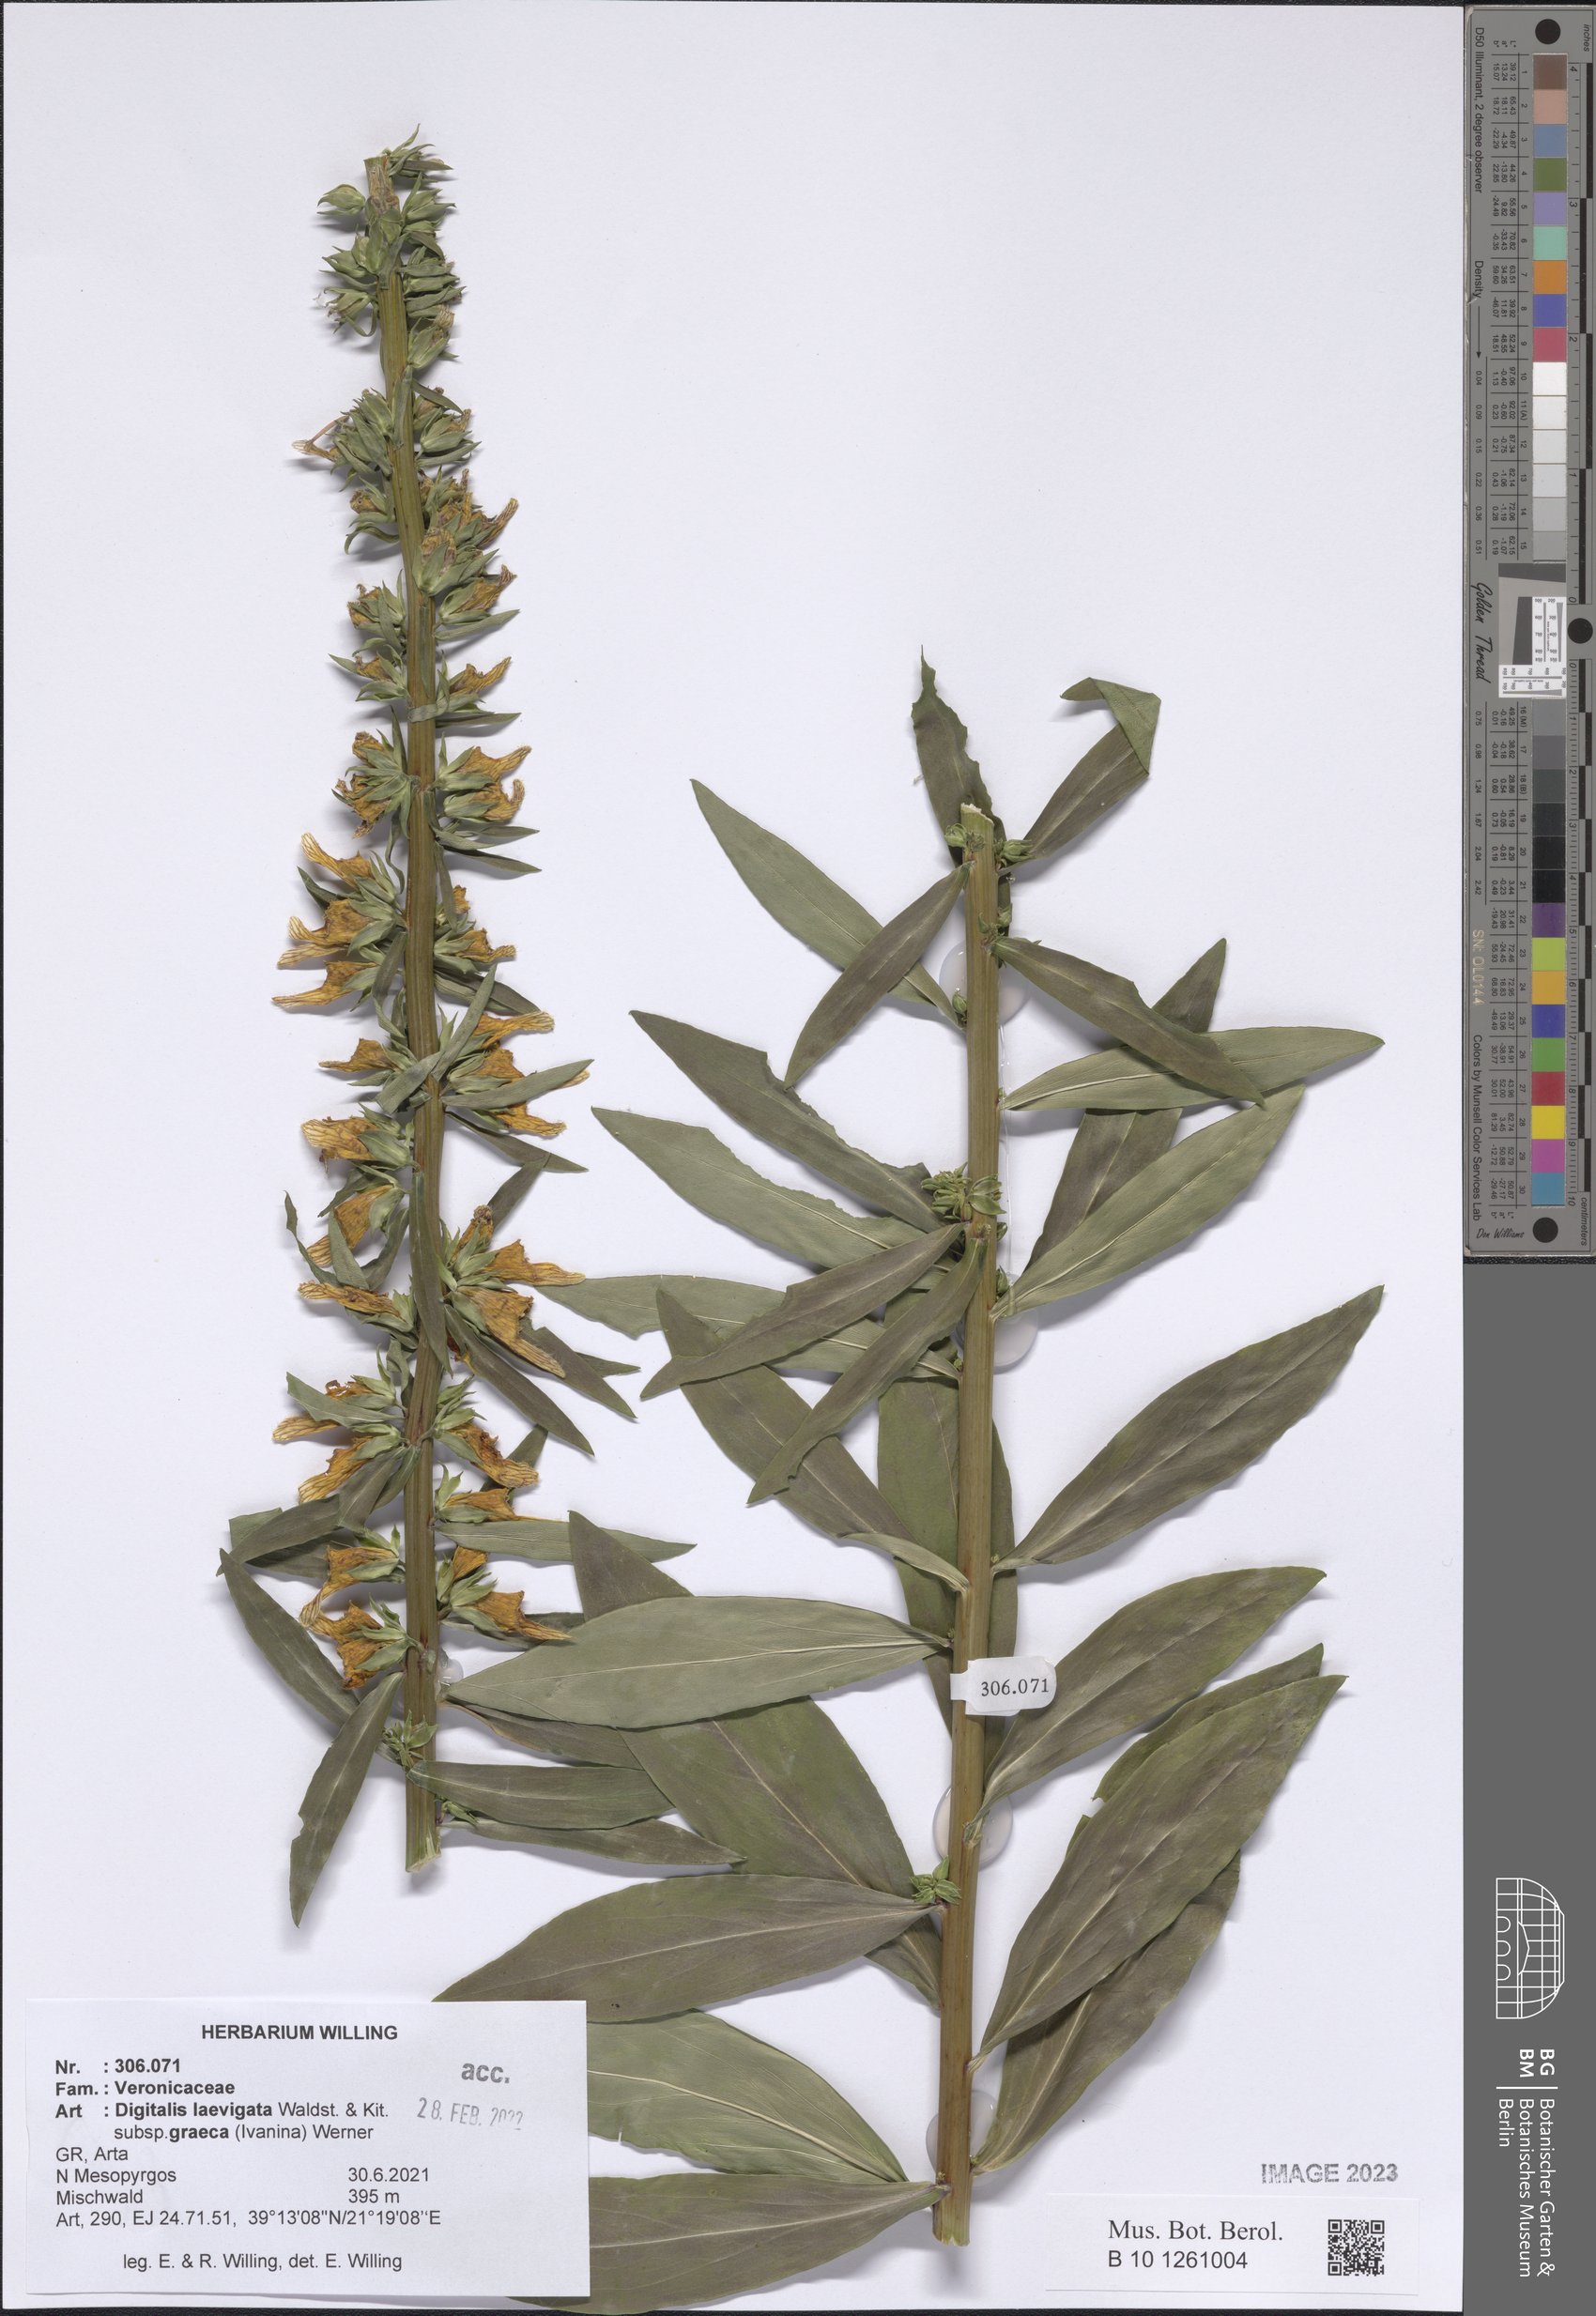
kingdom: Plantae
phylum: Tracheophyta
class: Magnoliopsida
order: Lamiales
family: Plantaginaceae
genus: Digitalis
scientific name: Digitalis laevigata
